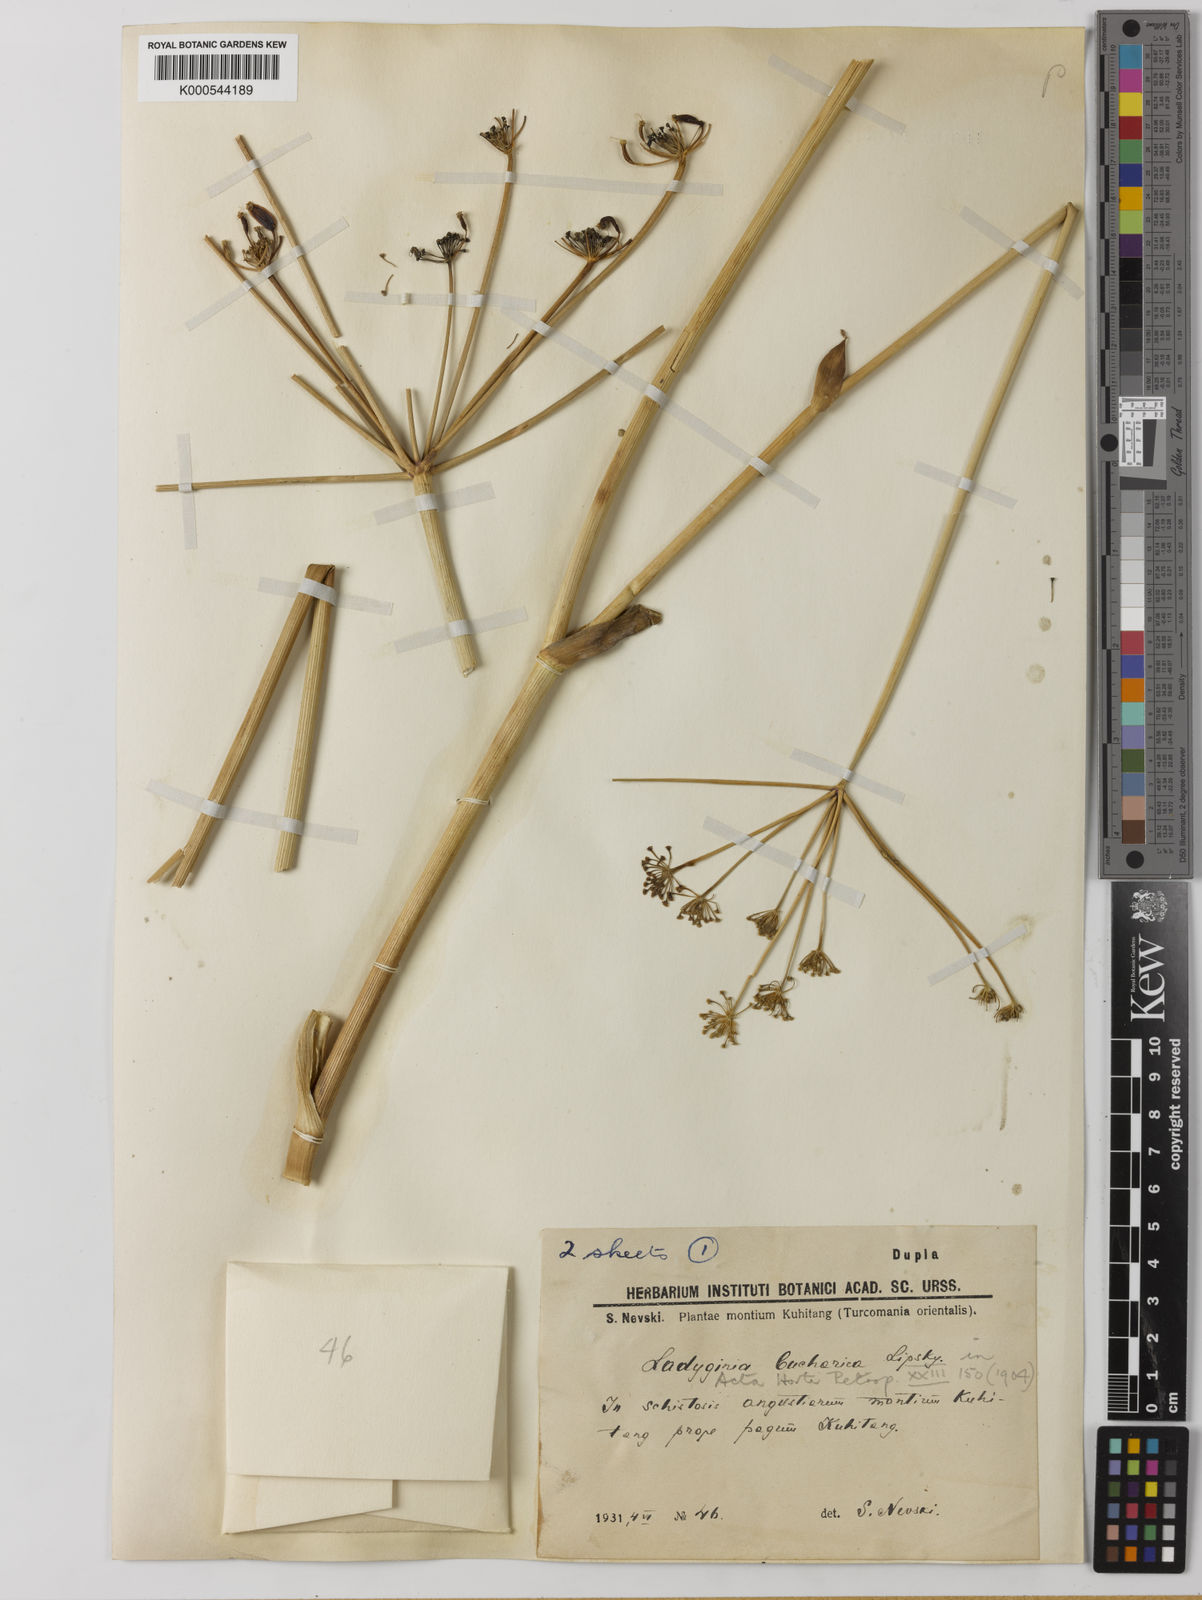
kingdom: Plantae
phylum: Tracheophyta
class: Magnoliopsida
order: Apiales
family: Apiaceae
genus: Ladyginia
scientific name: Ladyginia bucharica
